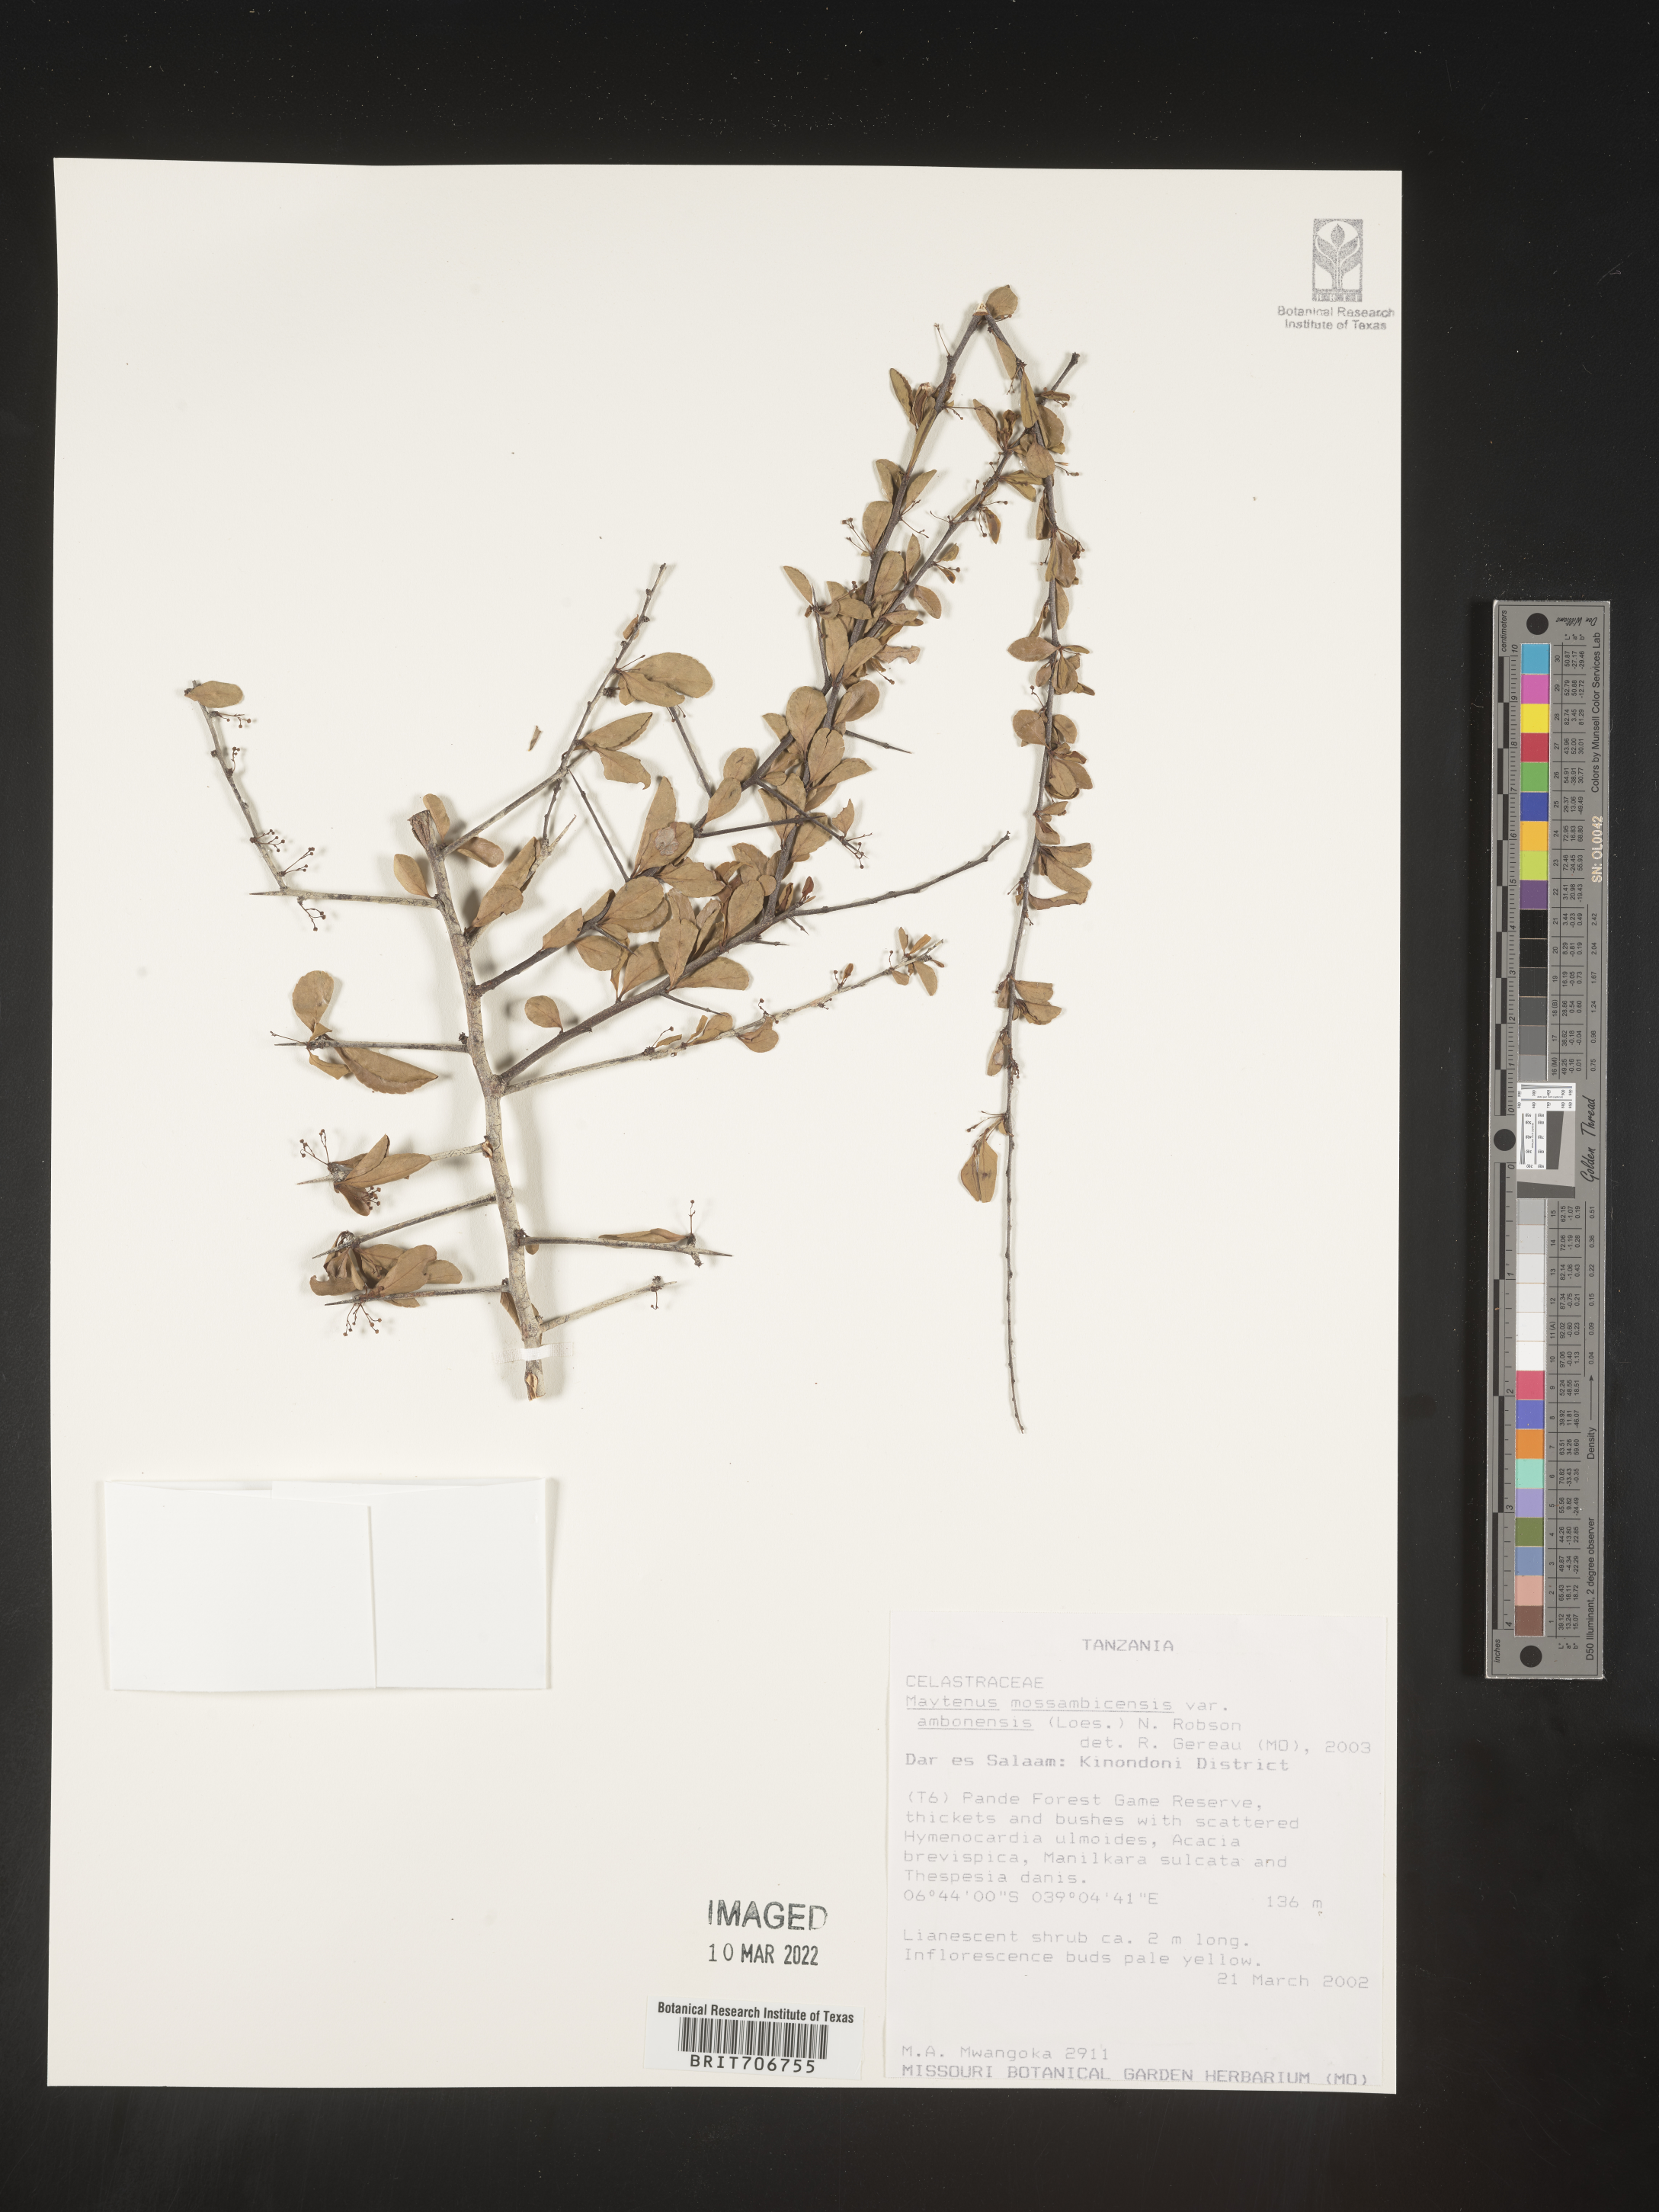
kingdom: Plantae
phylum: Tracheophyta
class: Magnoliopsida
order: Celastrales
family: Celastraceae
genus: Maytenus
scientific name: Maytenus
